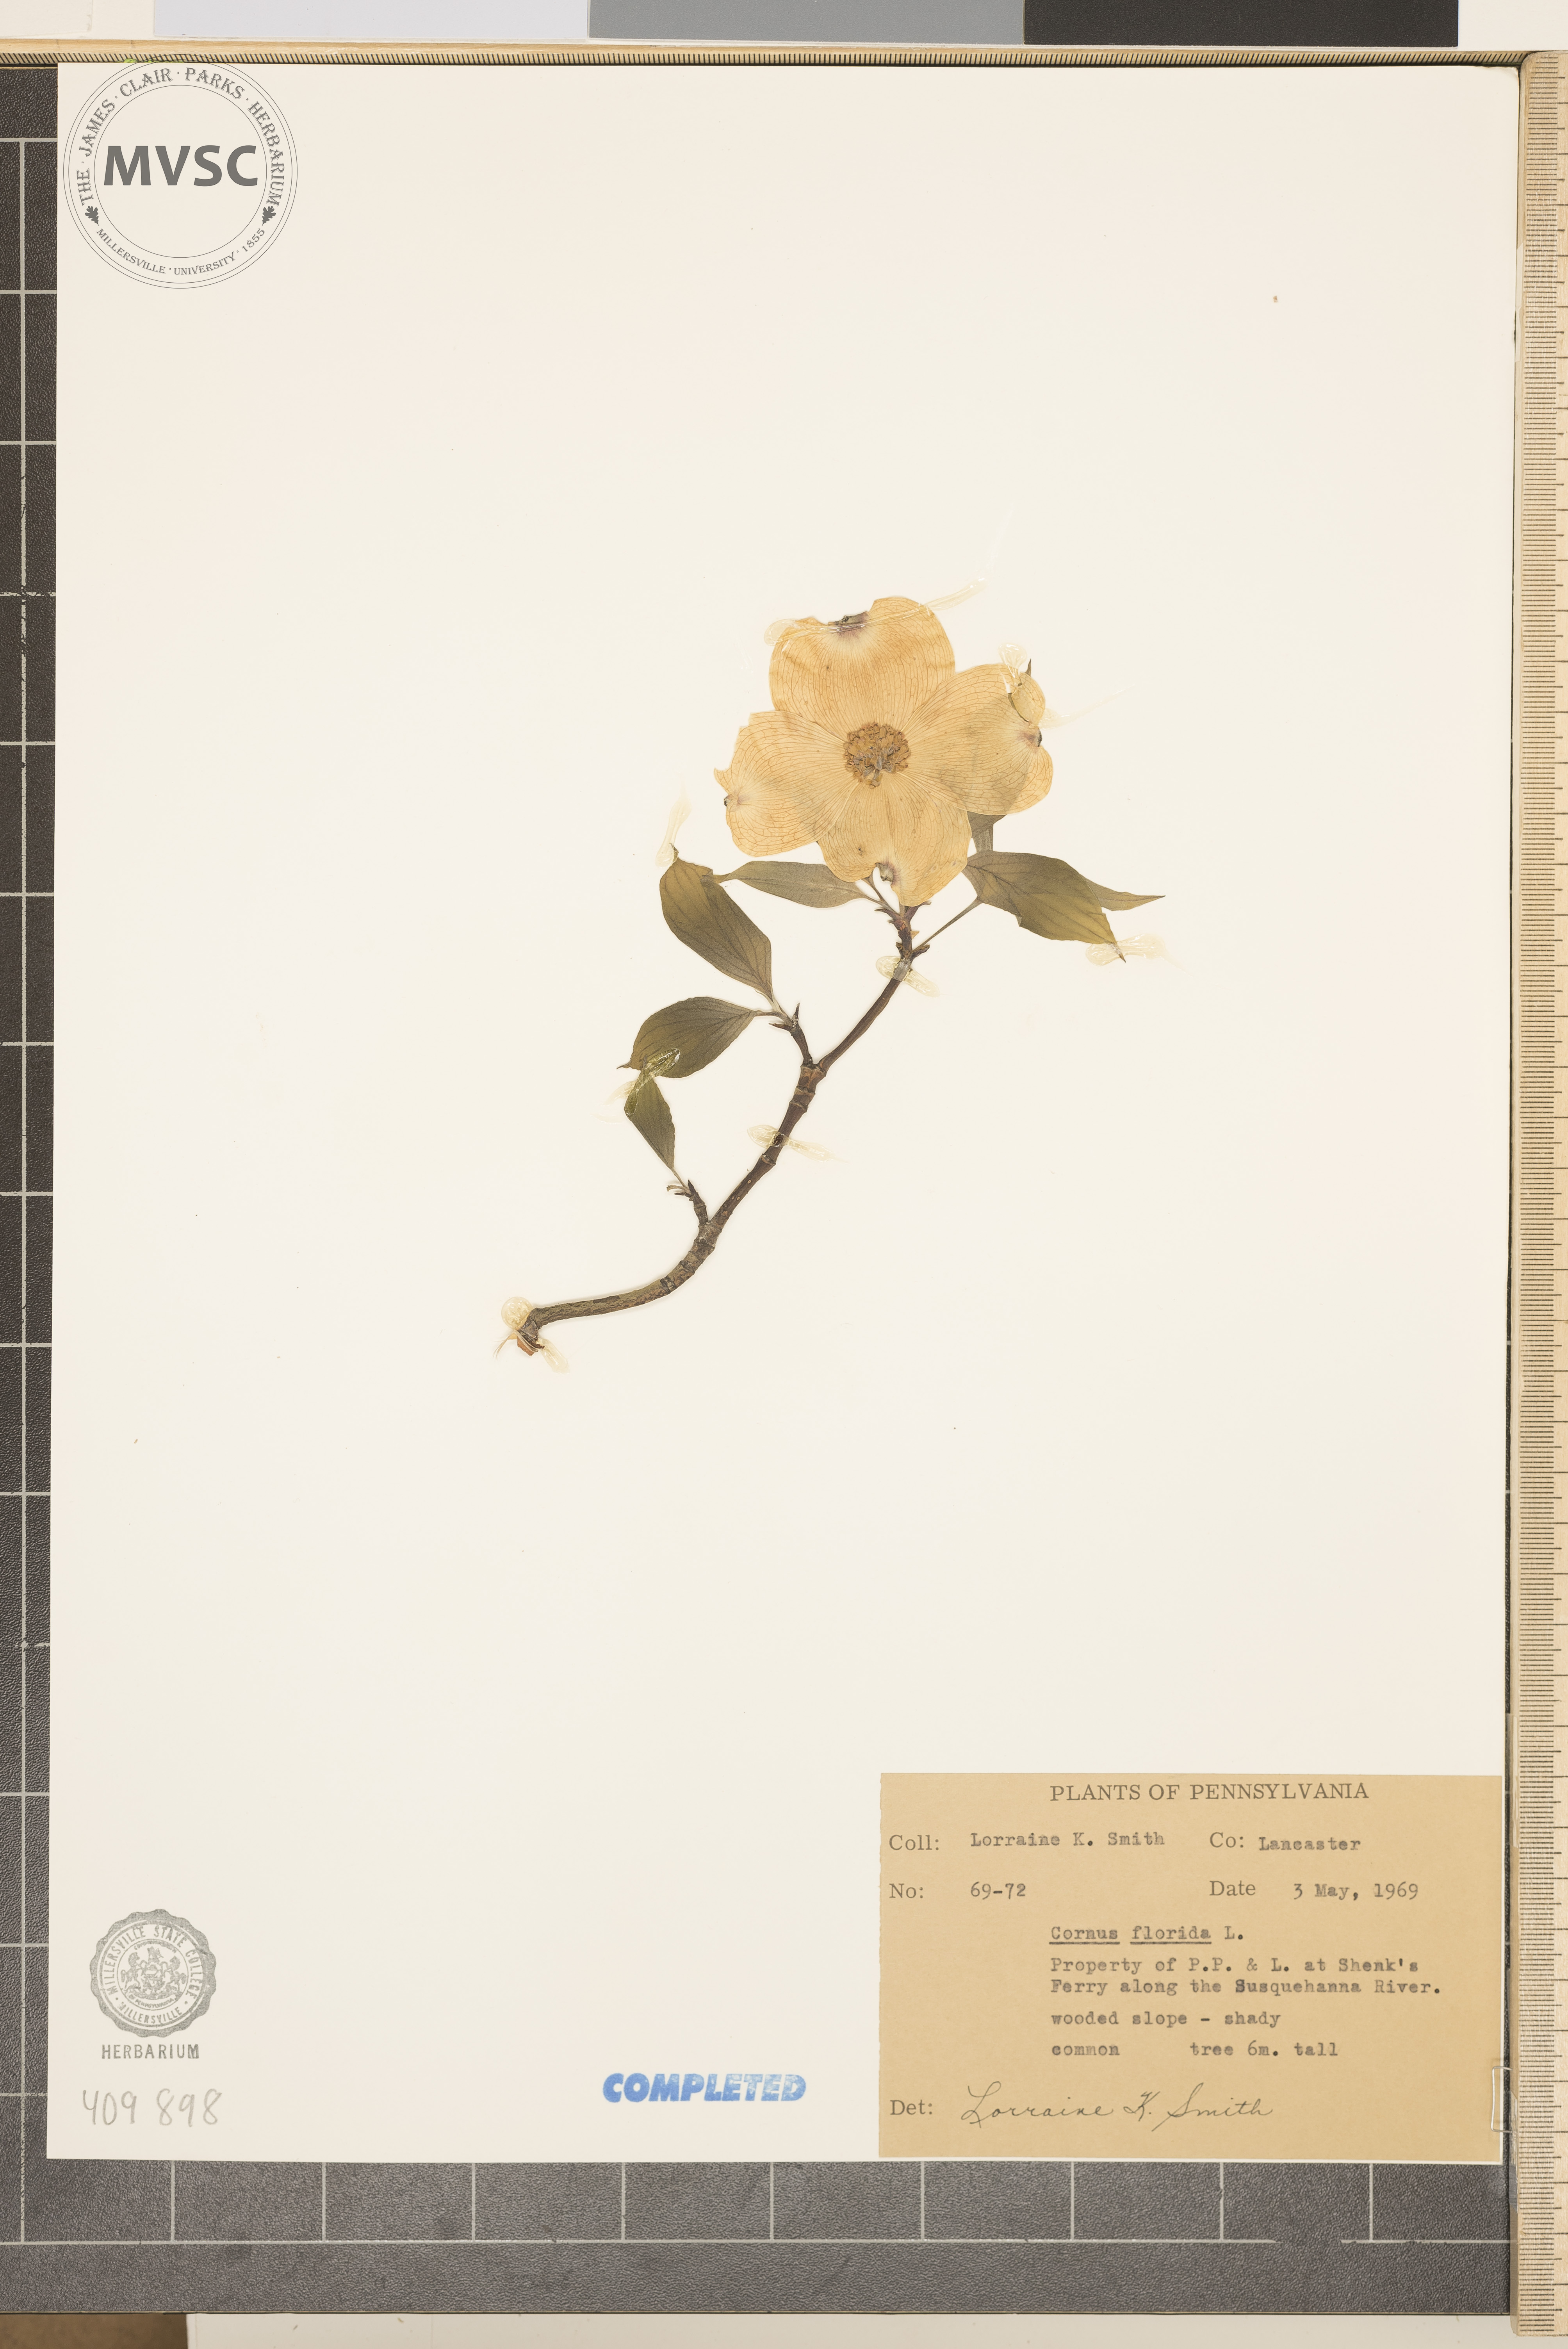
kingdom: Plantae
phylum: Tracheophyta
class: Magnoliopsida
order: Cornales
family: Cornaceae
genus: Cornus
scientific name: Cornus florida
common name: Flowering dogwood
